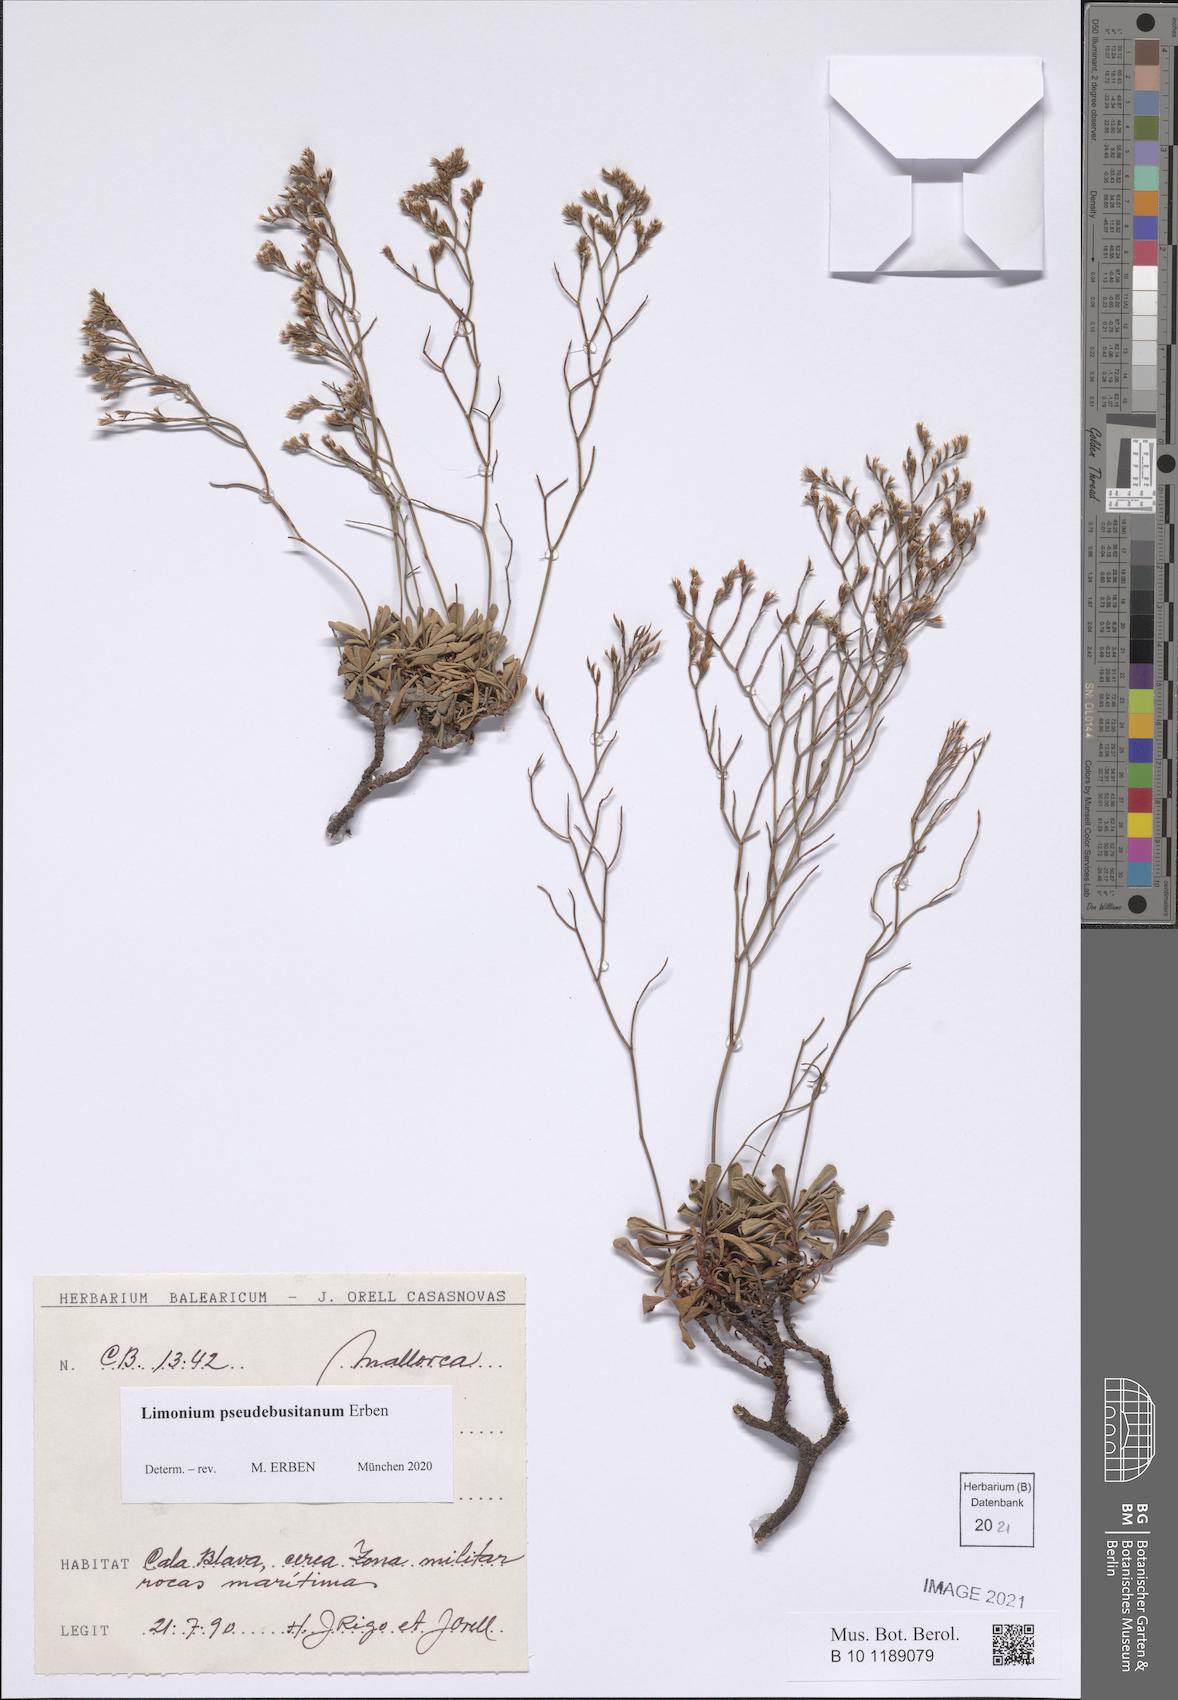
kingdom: Plantae
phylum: Tracheophyta
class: Magnoliopsida
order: Caryophyllales
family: Plumbaginaceae
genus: Limonium
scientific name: Limonium pseudebusitanum
